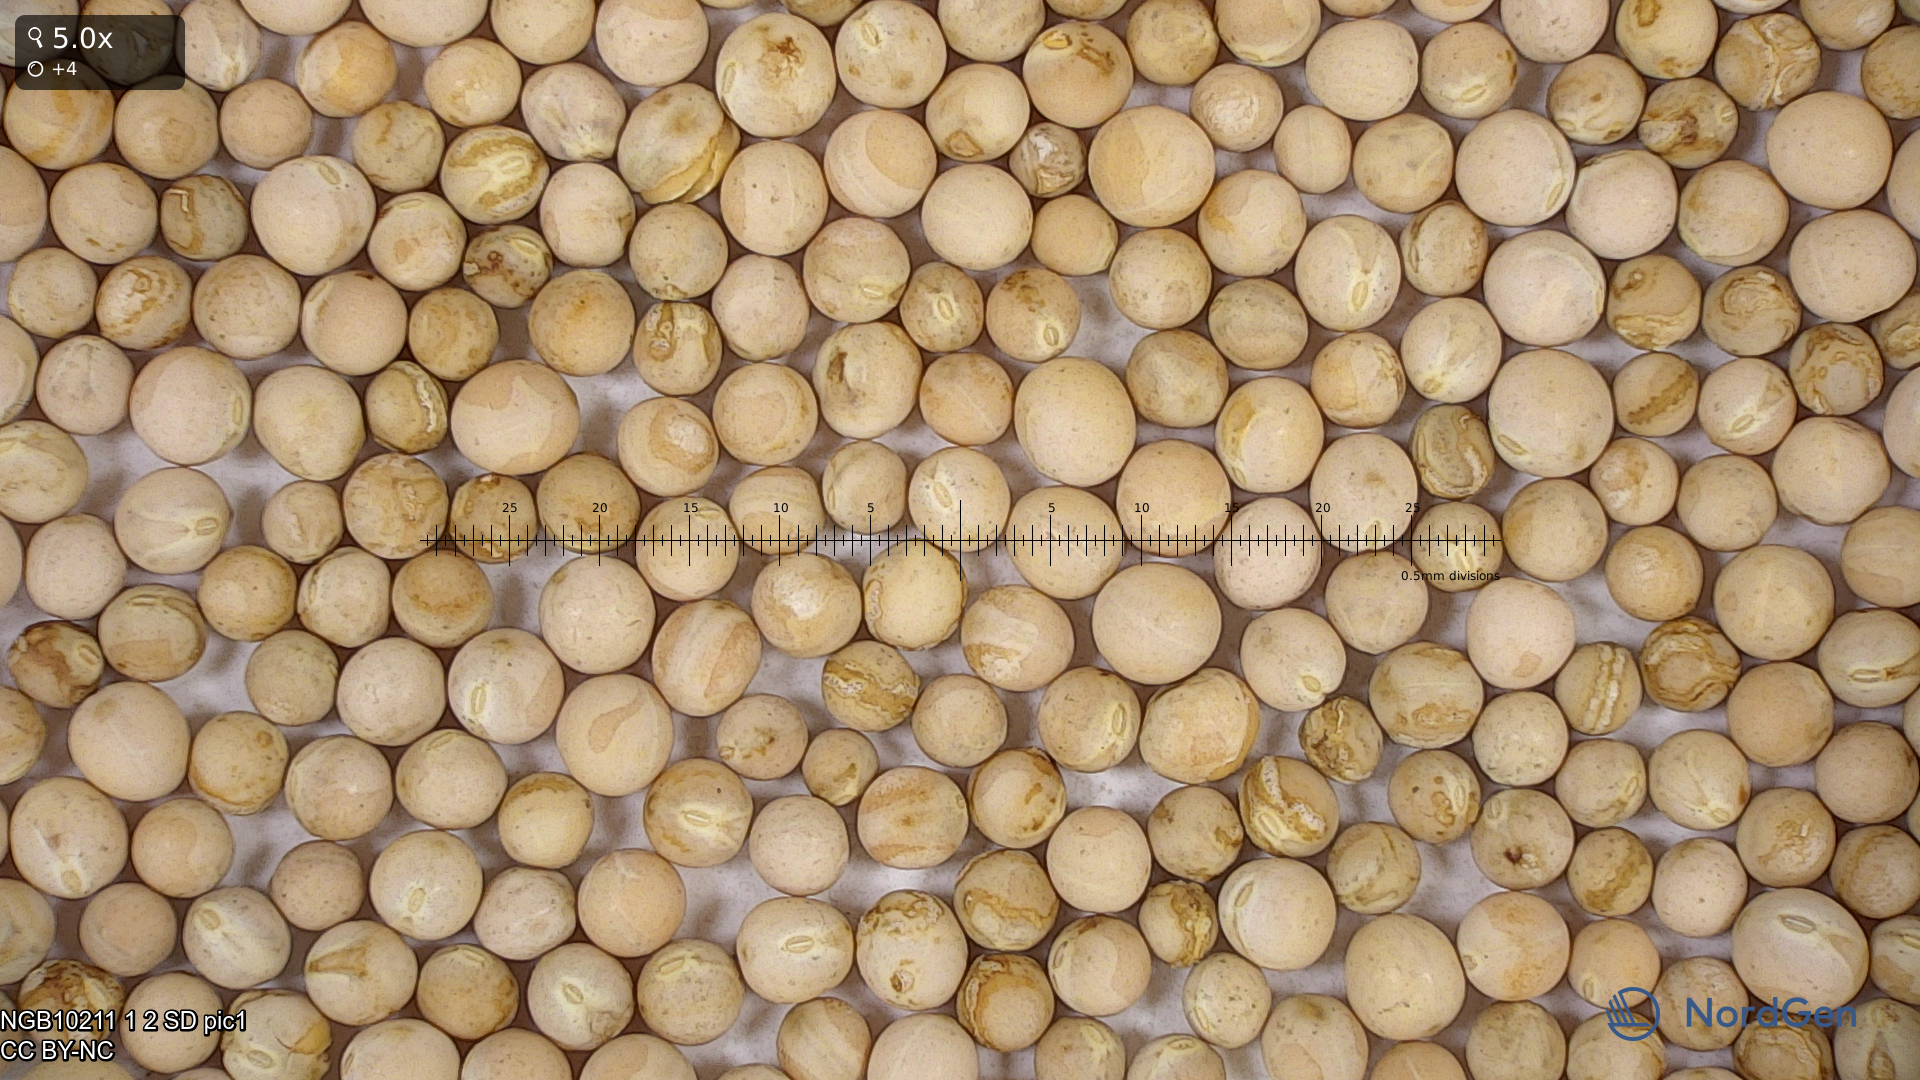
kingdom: Plantae
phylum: Tracheophyta
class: Magnoliopsida
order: Brassicales
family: Brassicaceae
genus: Barbarea
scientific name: Barbarea vulgaris
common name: Cressy-greens
